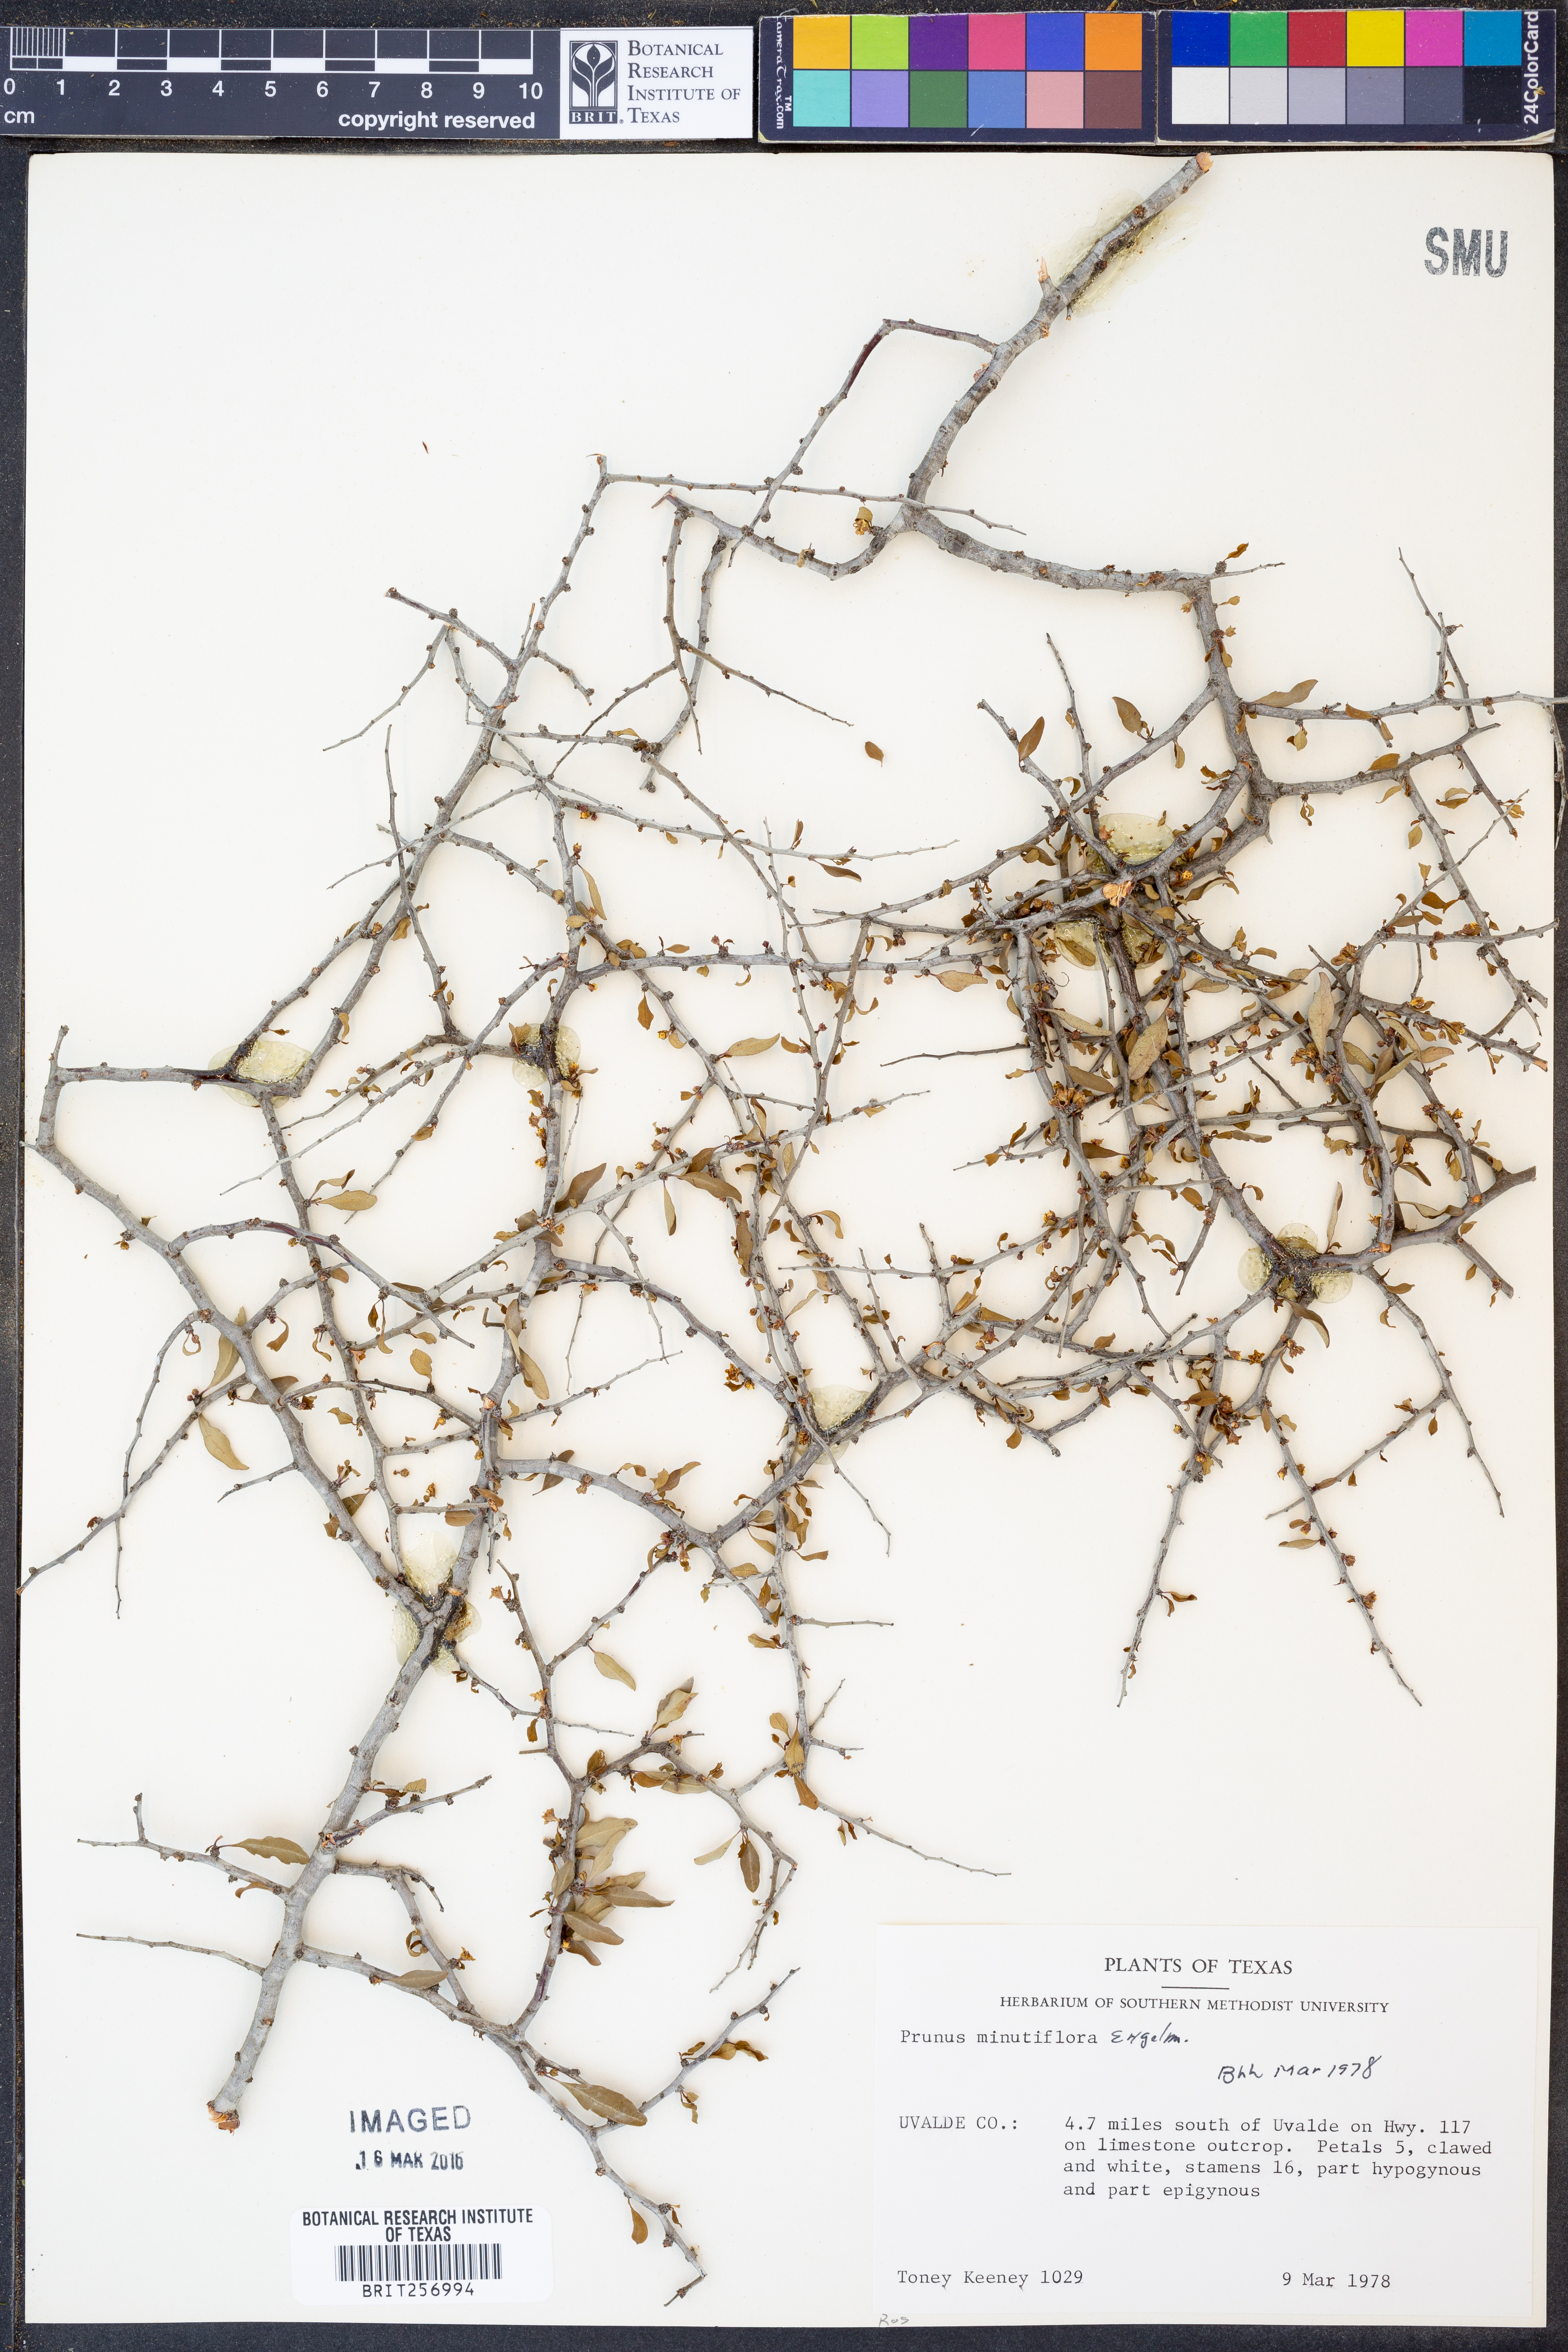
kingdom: Plantae
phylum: Tracheophyta
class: Magnoliopsida
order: Rosales
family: Rosaceae
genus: Prunus
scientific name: Prunus minutiflora
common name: Texas almond
